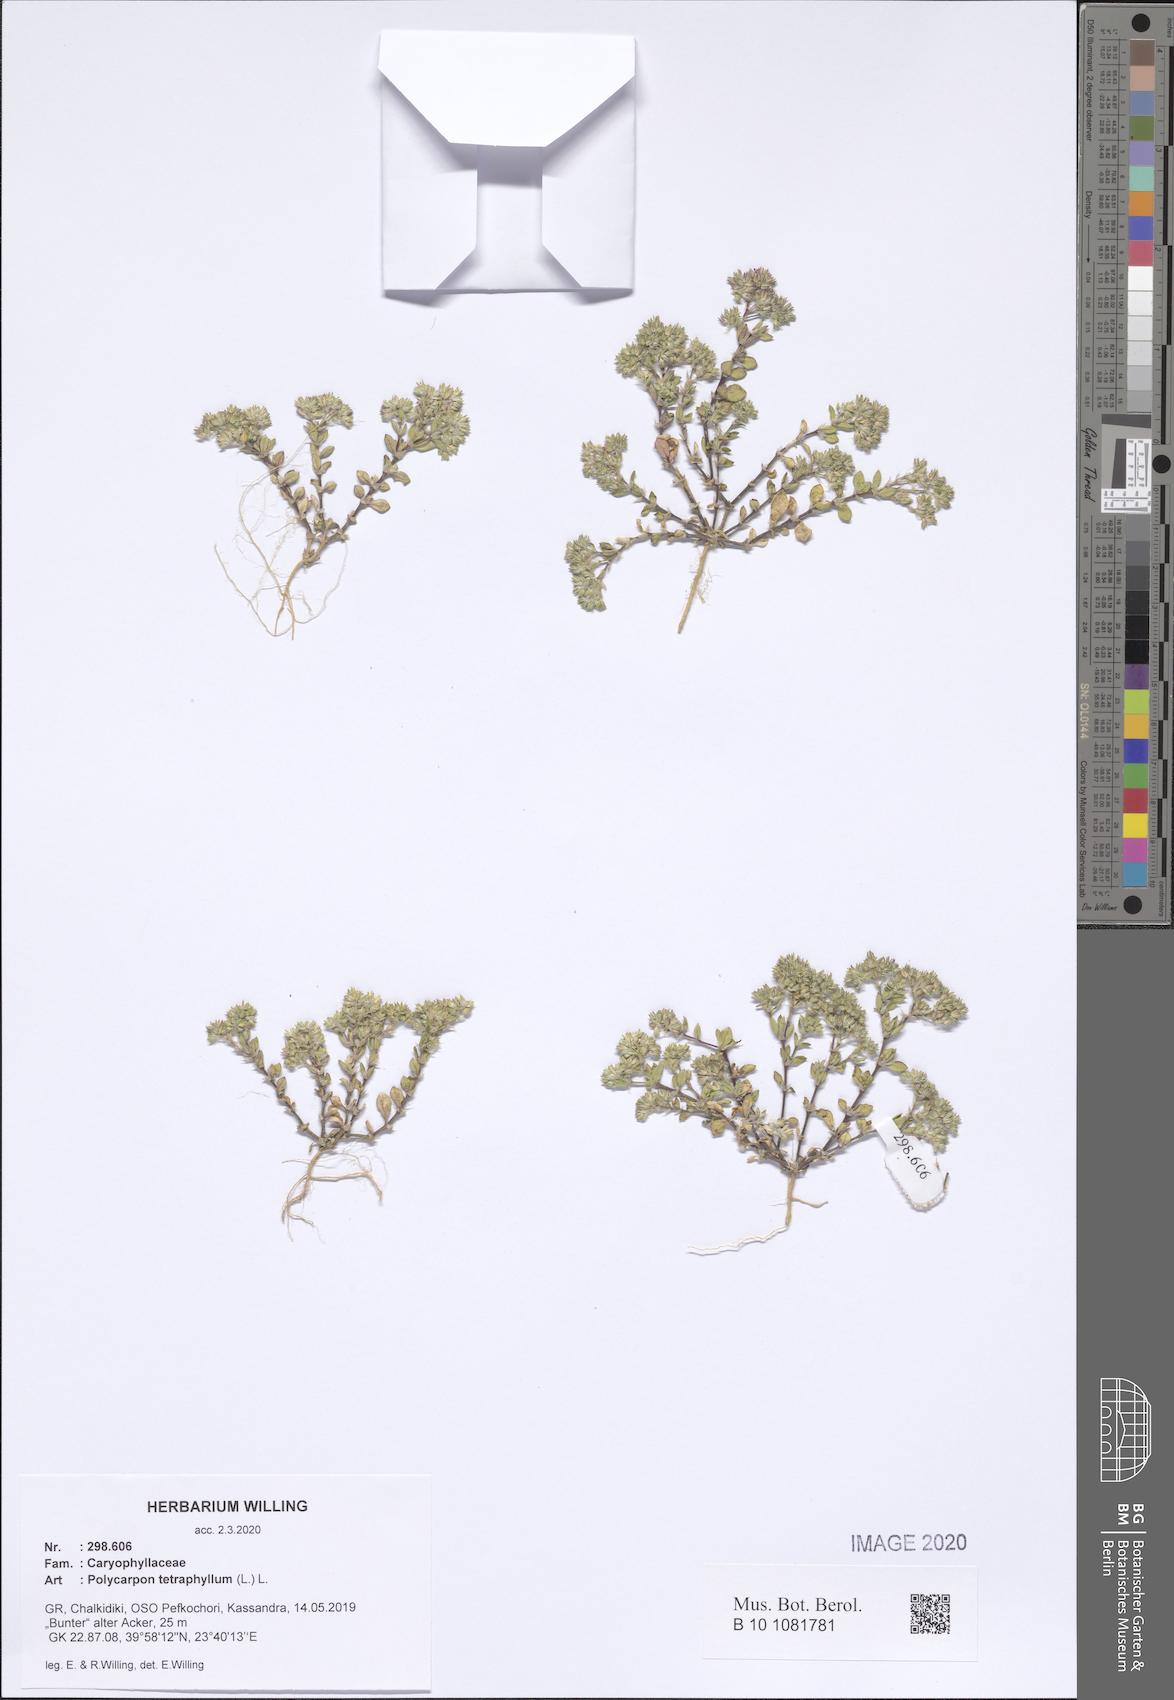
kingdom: Plantae
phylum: Tracheophyta
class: Magnoliopsida
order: Caryophyllales
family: Caryophyllaceae
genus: Polycarpon
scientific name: Polycarpon tetraphyllum
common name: Four-leaved all-seed
